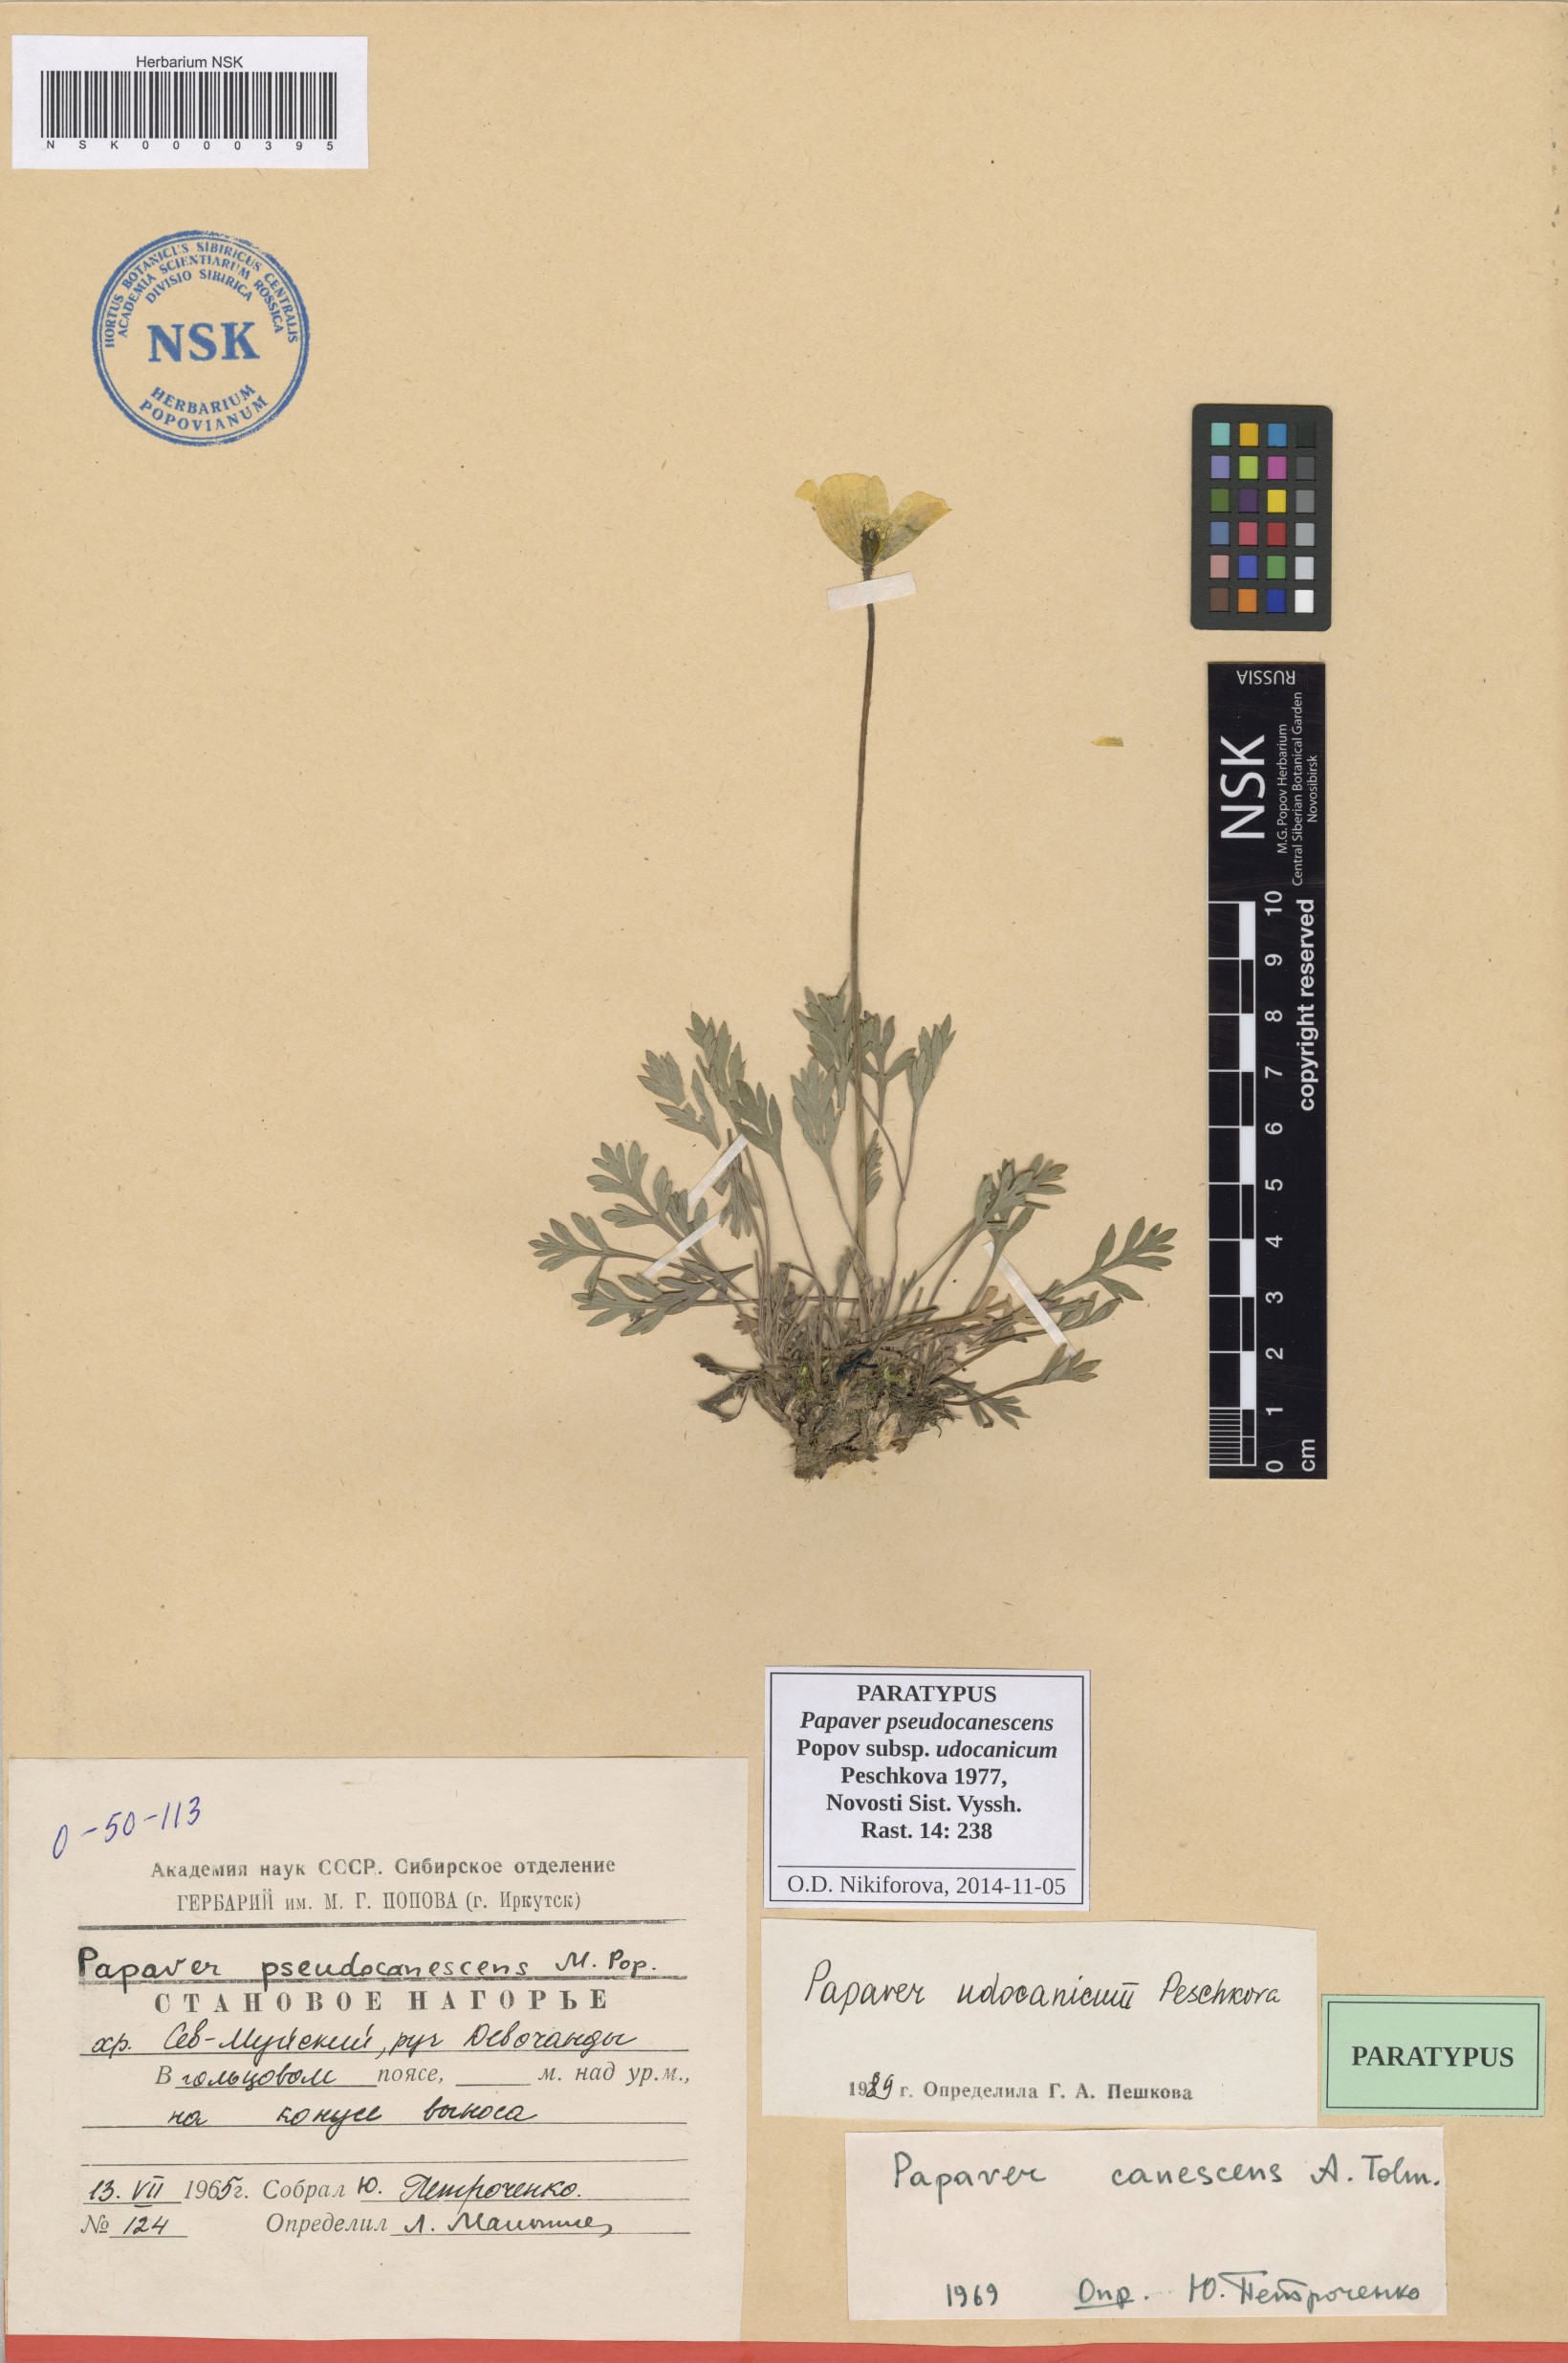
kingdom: Plantae
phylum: Tracheophyta
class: Magnoliopsida
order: Ranunculales
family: Papaveraceae
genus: Papaver
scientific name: Papaver udocanicum
